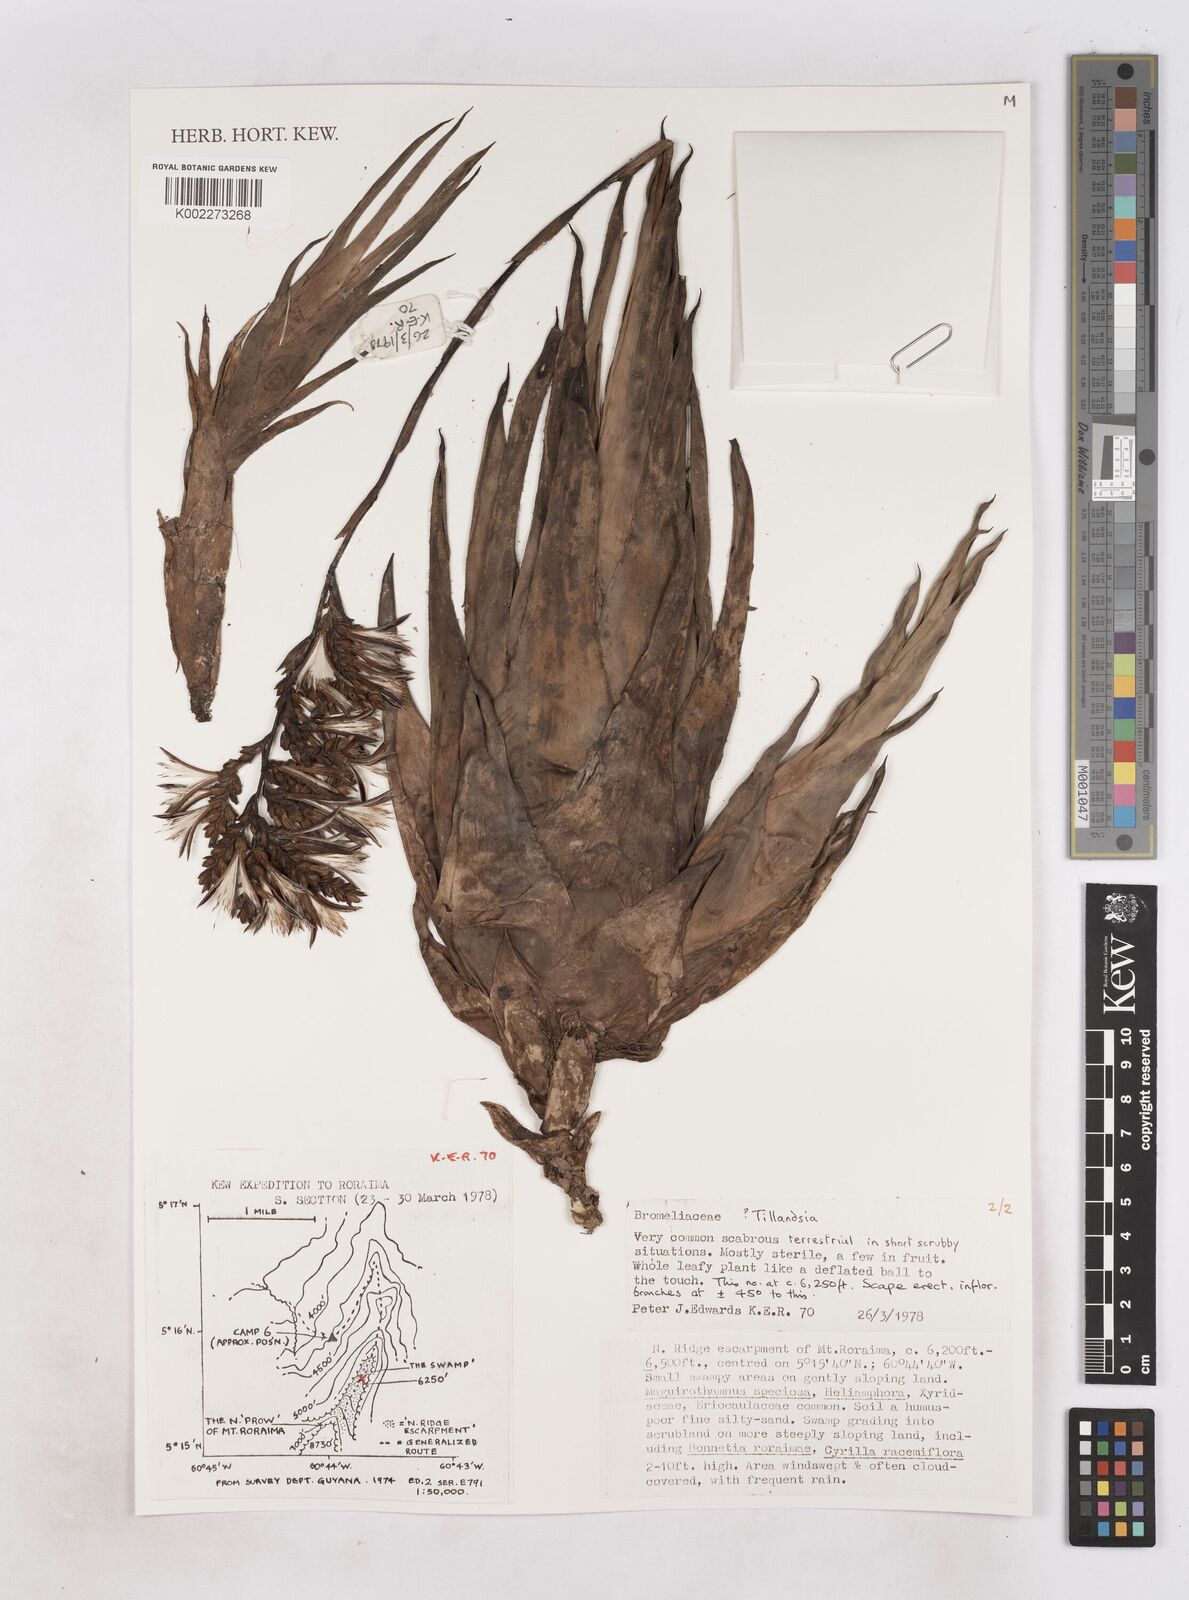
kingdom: Plantae
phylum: Tracheophyta
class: Liliopsida
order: Poales
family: Bromeliaceae
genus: Tillandsia
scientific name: Tillandsia
